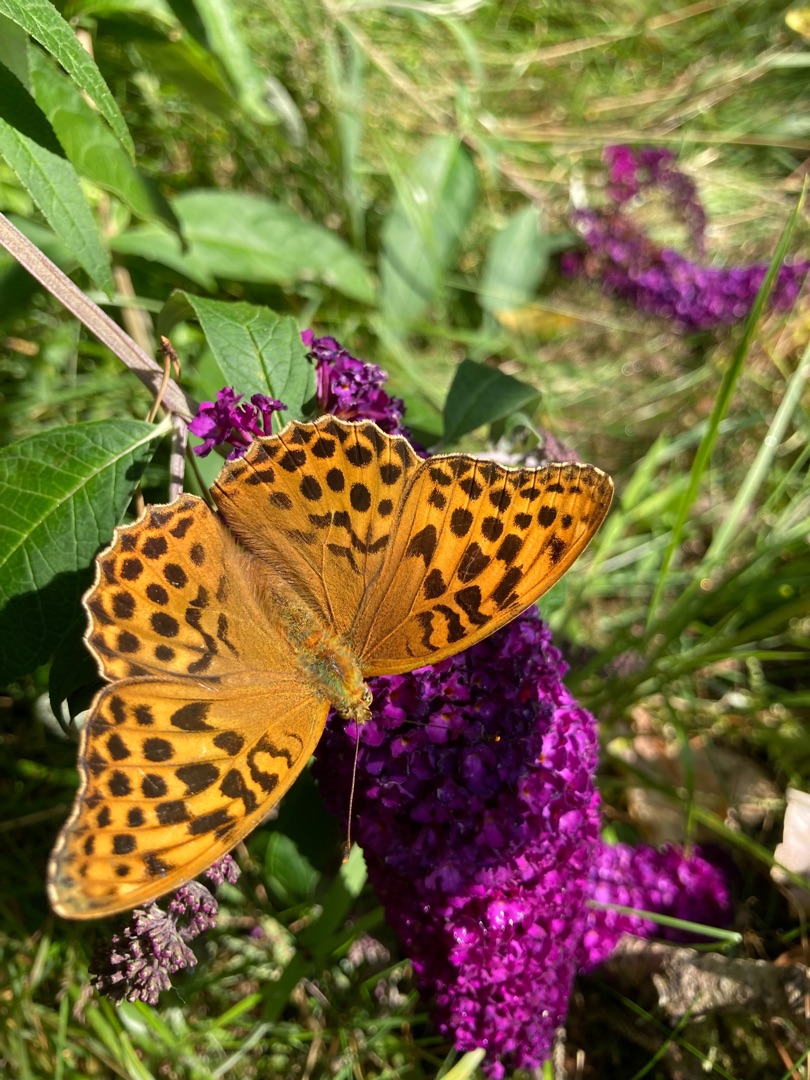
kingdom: Animalia
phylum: Arthropoda
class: Insecta
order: Lepidoptera
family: Nymphalidae
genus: Argynnis
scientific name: Argynnis paphia
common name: Kejserkåbe
